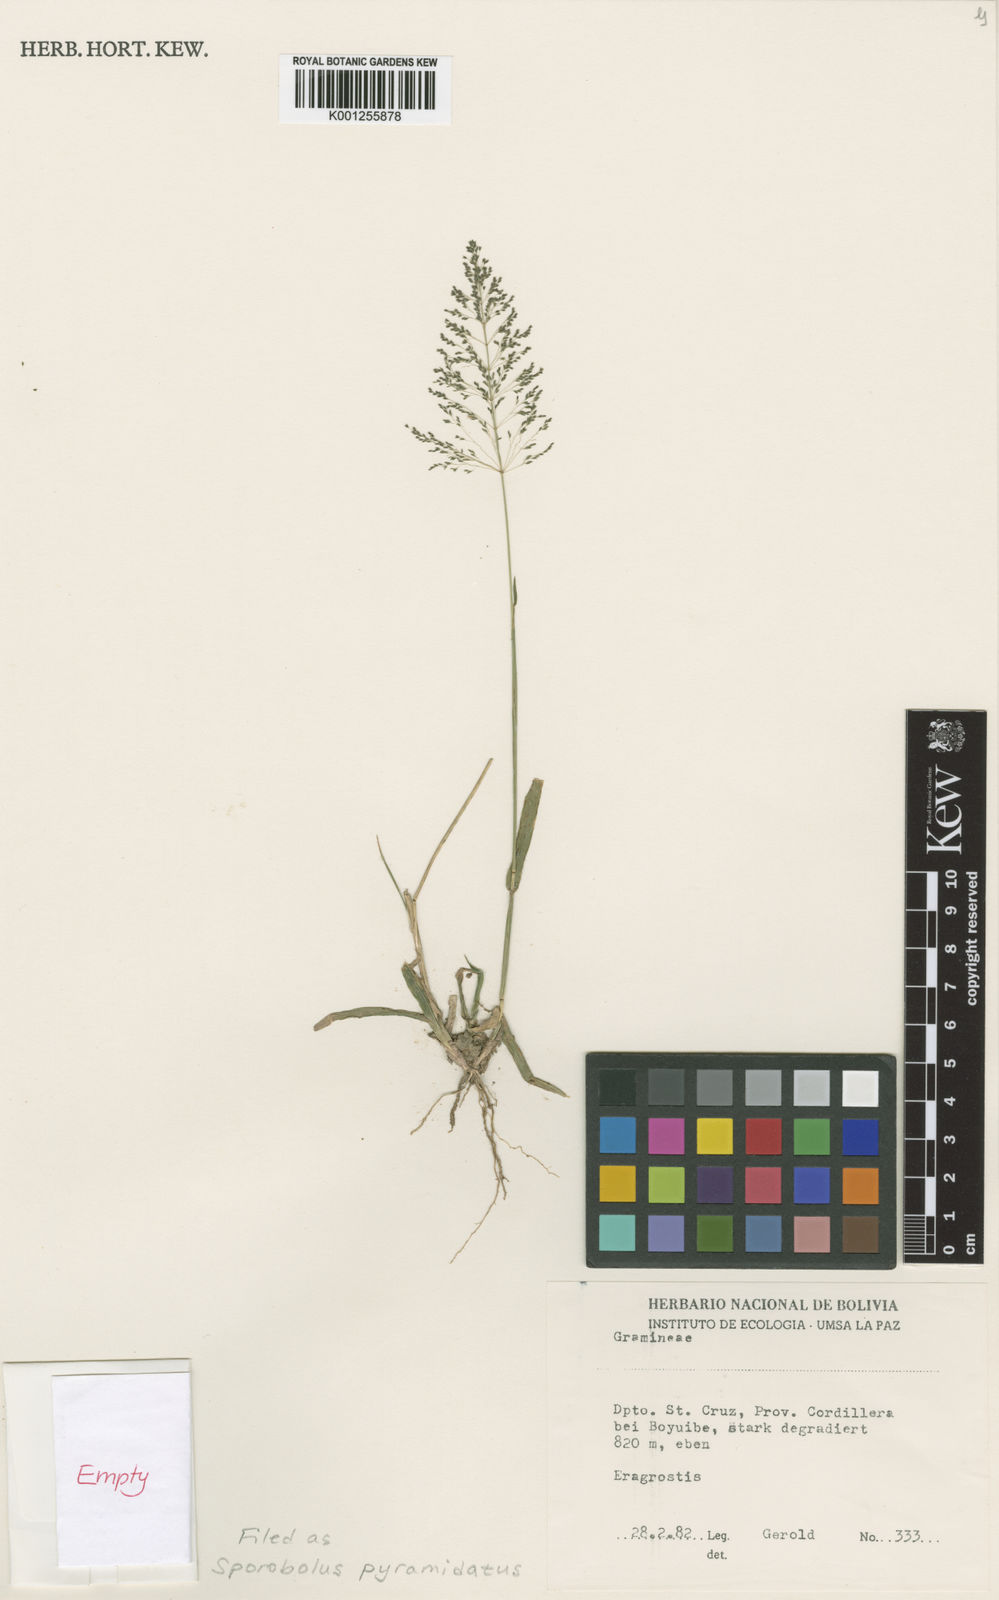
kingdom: Plantae
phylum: Tracheophyta
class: Liliopsida
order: Poales
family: Poaceae
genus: Sporobolus
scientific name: Sporobolus pyramidatus
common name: Whorled dropseed
